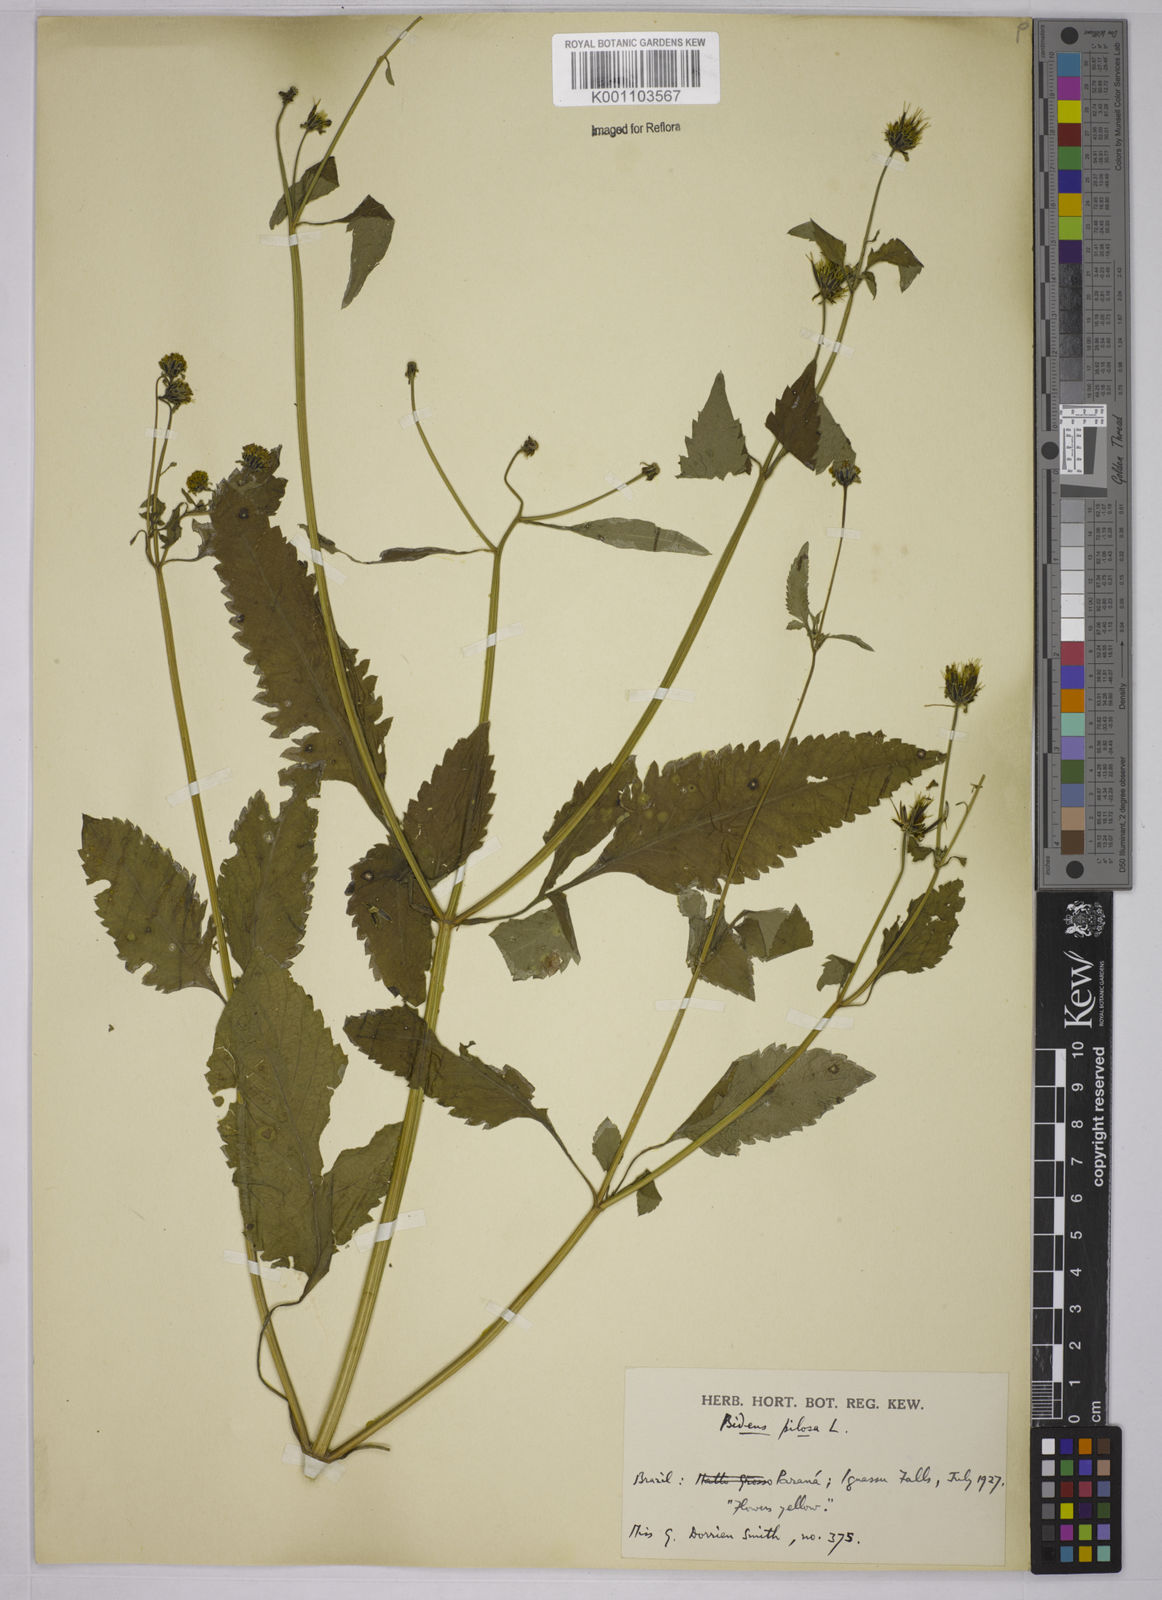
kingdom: Plantae
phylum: Tracheophyta
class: Magnoliopsida
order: Asterales
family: Asteraceae
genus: Bidens
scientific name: Bidens pilosa
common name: Black-jack
